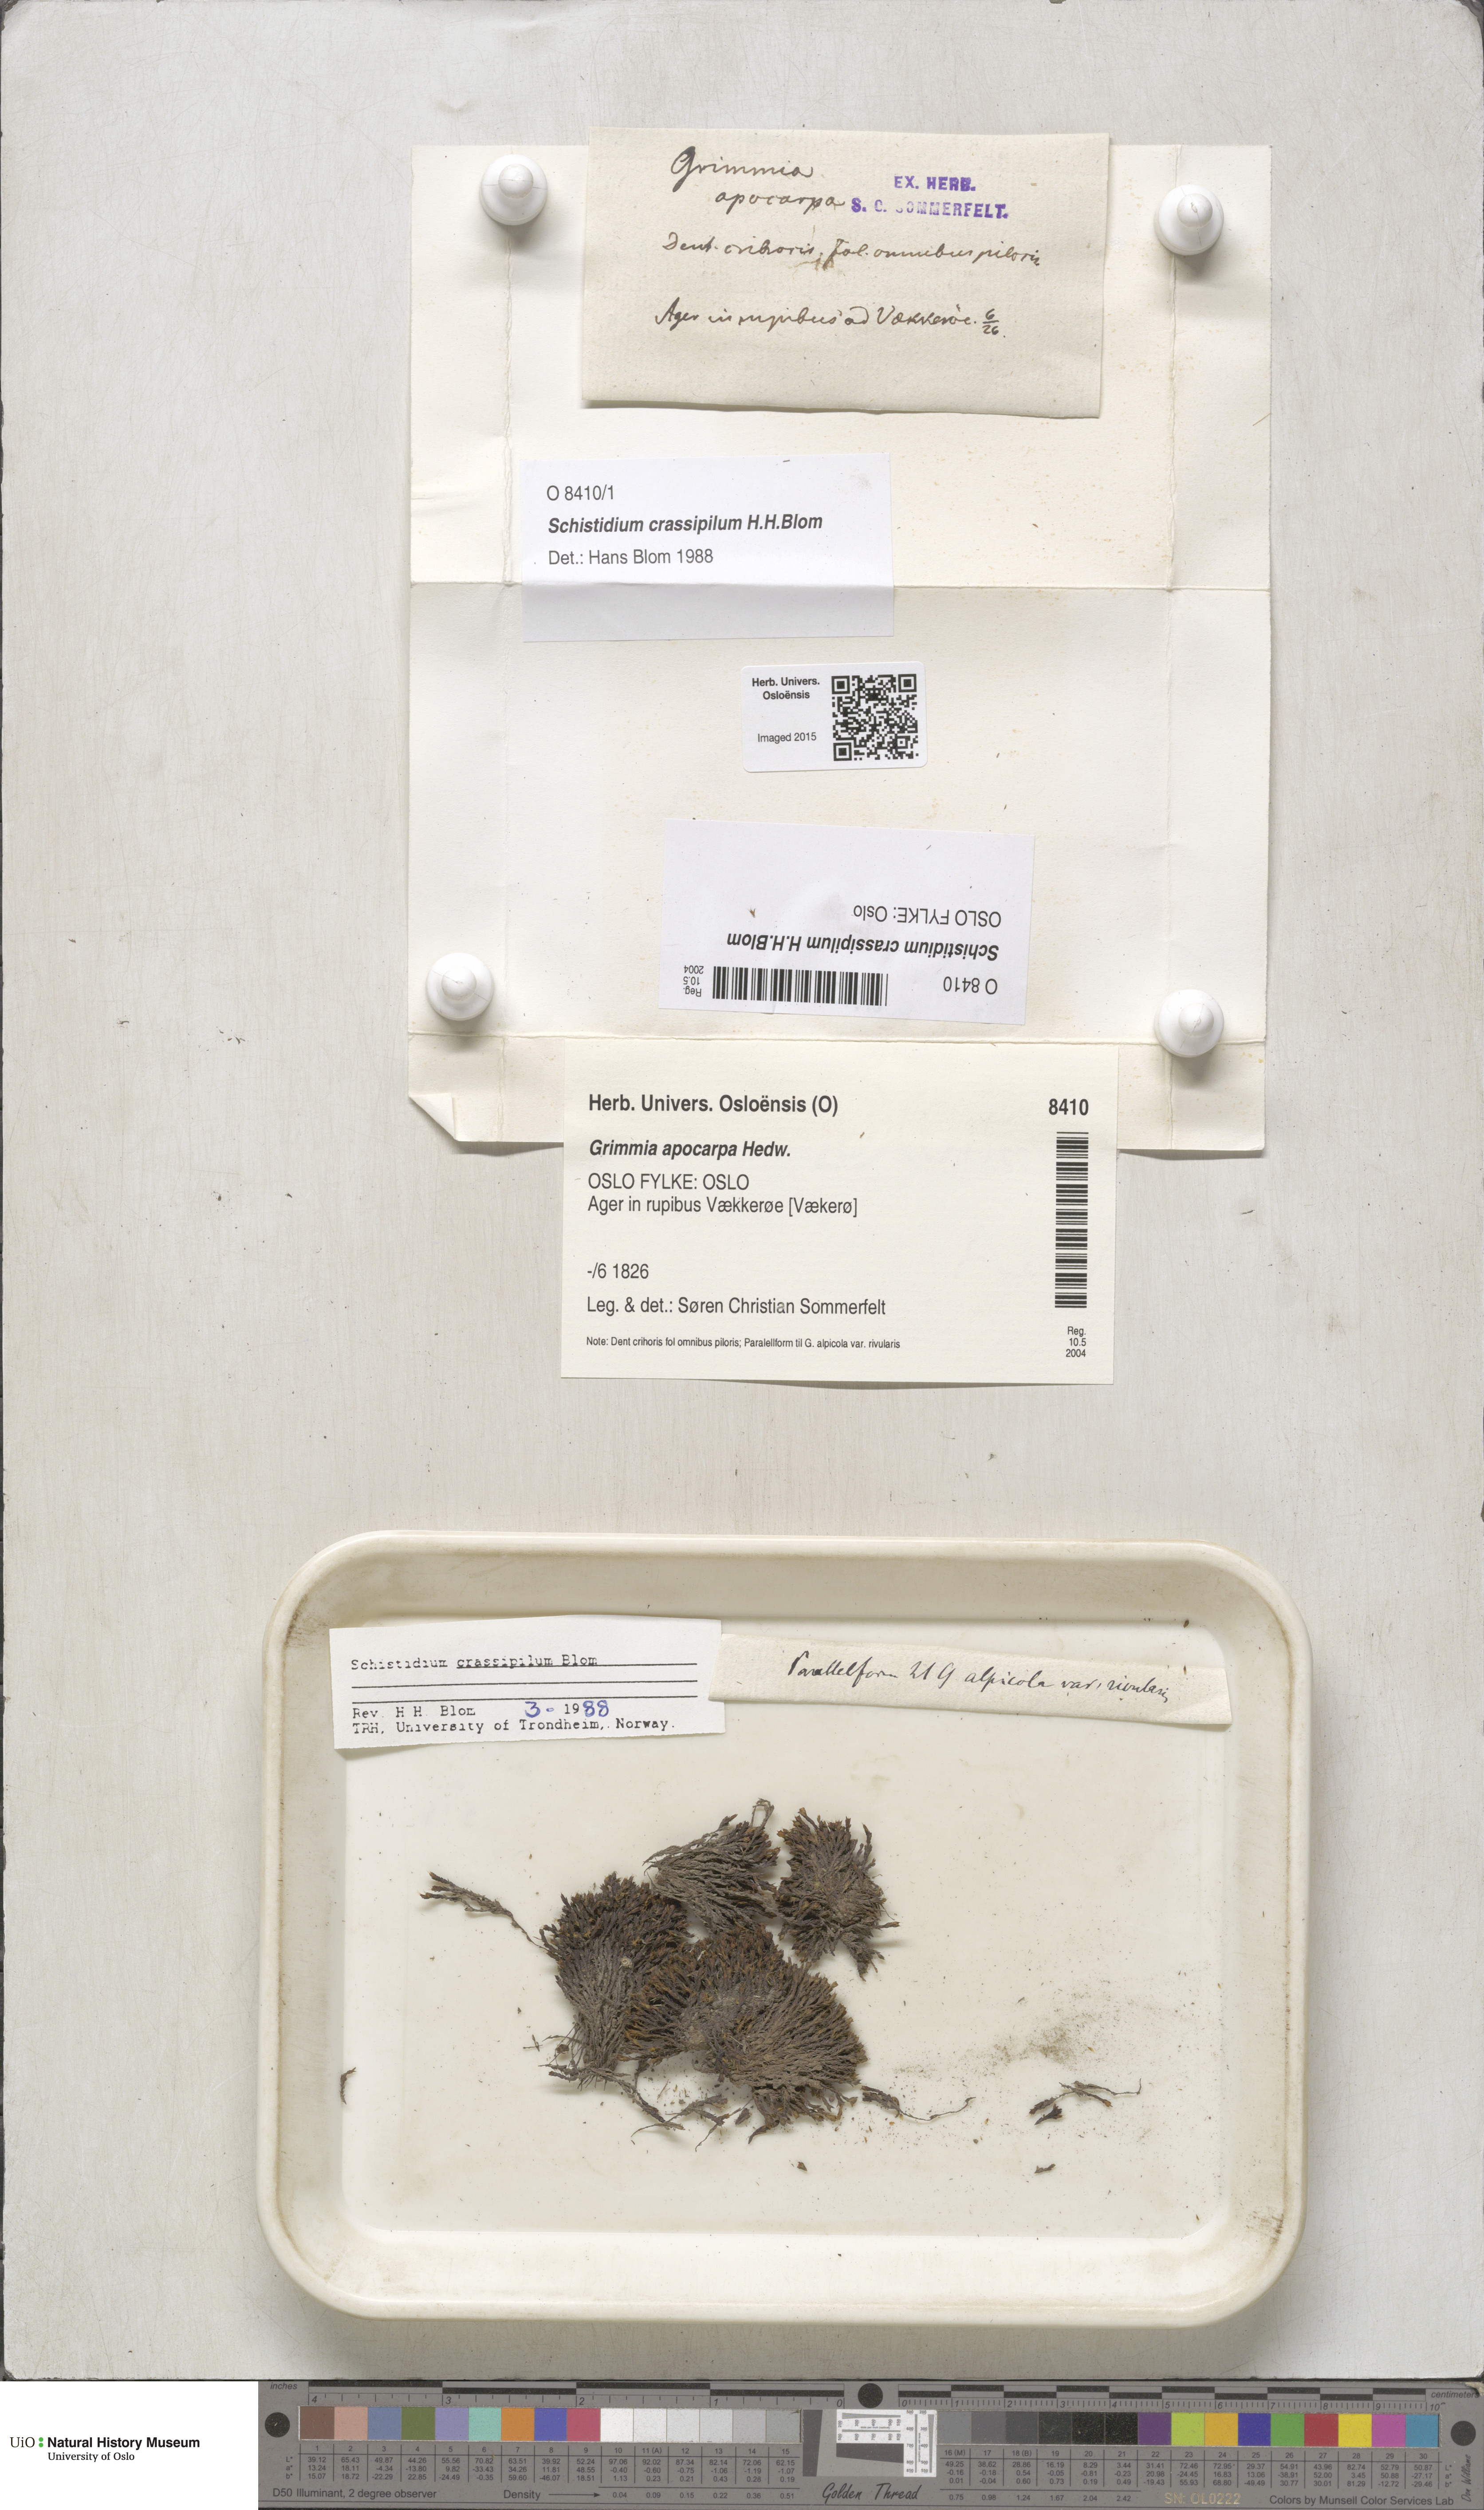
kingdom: Plantae
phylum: Bryophyta
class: Bryopsida
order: Grimmiales
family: Grimmiaceae
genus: Schistidium
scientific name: Schistidium crassipilum
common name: Thickpoint bloom moss
